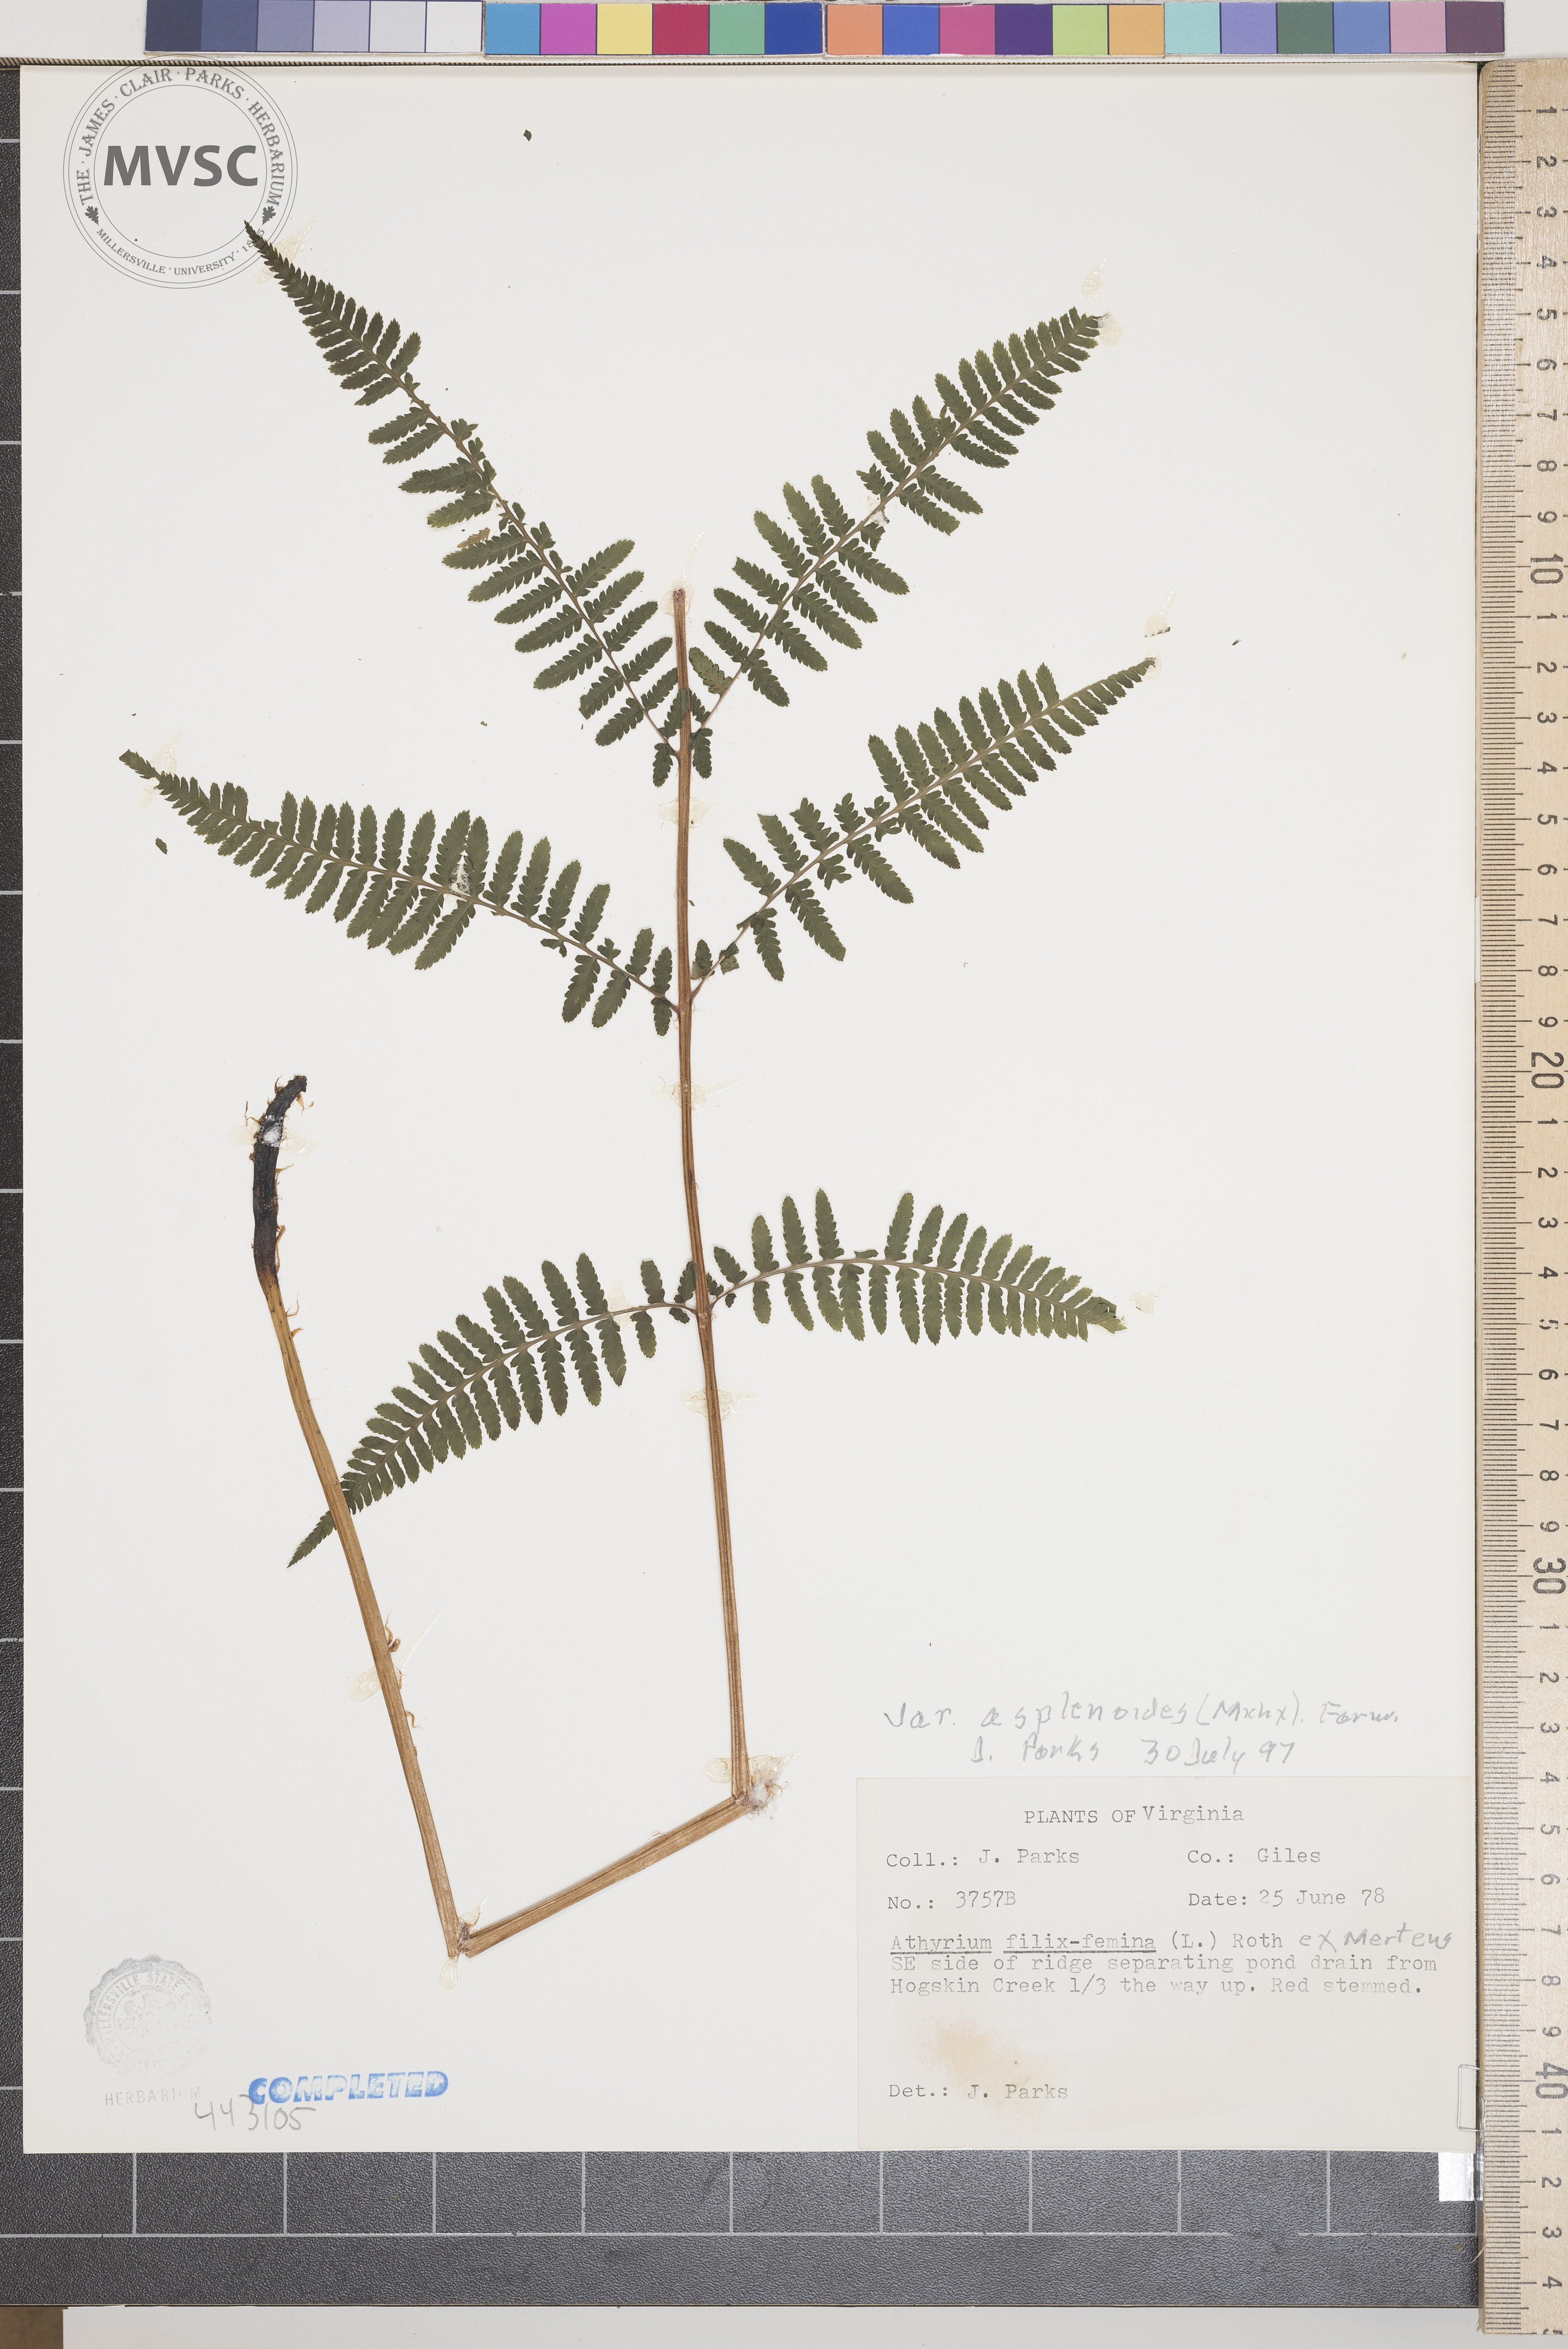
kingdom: Plantae
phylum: Tracheophyta
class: Polypodiopsida
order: Polypodiales
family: Athyriaceae
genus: Athyrium
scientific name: Athyrium filix-femina
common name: Lady fern
